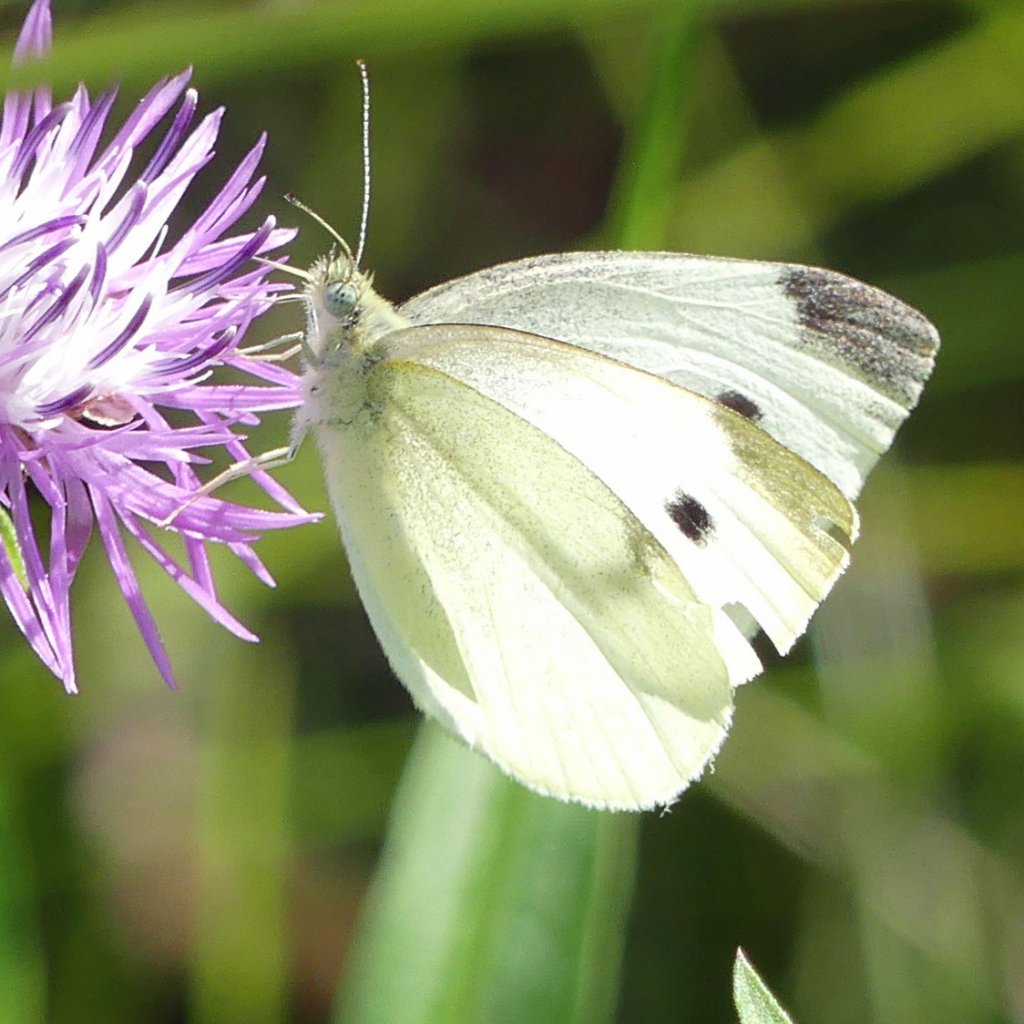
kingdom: Animalia
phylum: Arthropoda
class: Insecta
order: Lepidoptera
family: Pieridae
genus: Pieris
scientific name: Pieris rapae
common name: Cabbage White
